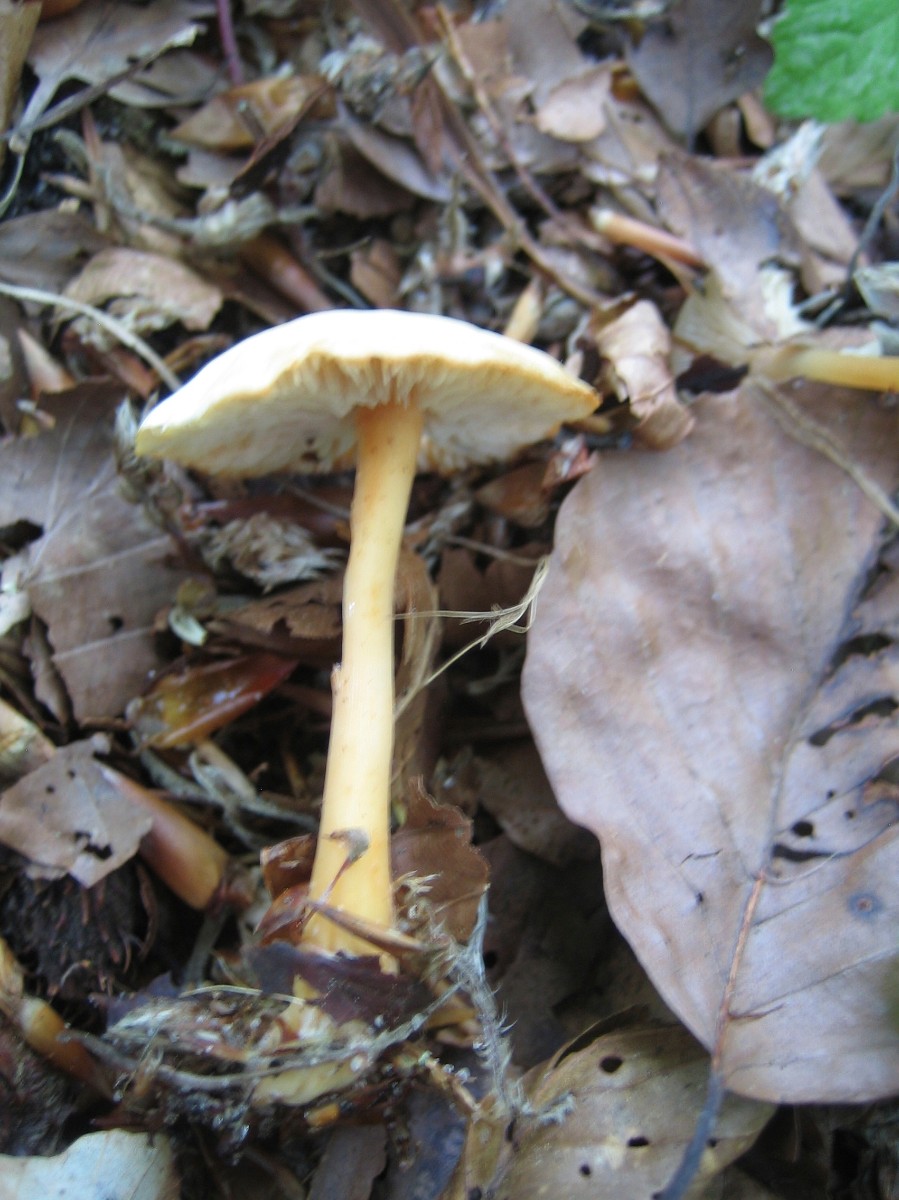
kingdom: Fungi
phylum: Basidiomycota
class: Agaricomycetes
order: Agaricales
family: Omphalotaceae
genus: Gymnopus
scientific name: Gymnopus aquosus
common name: bleg fladhat
